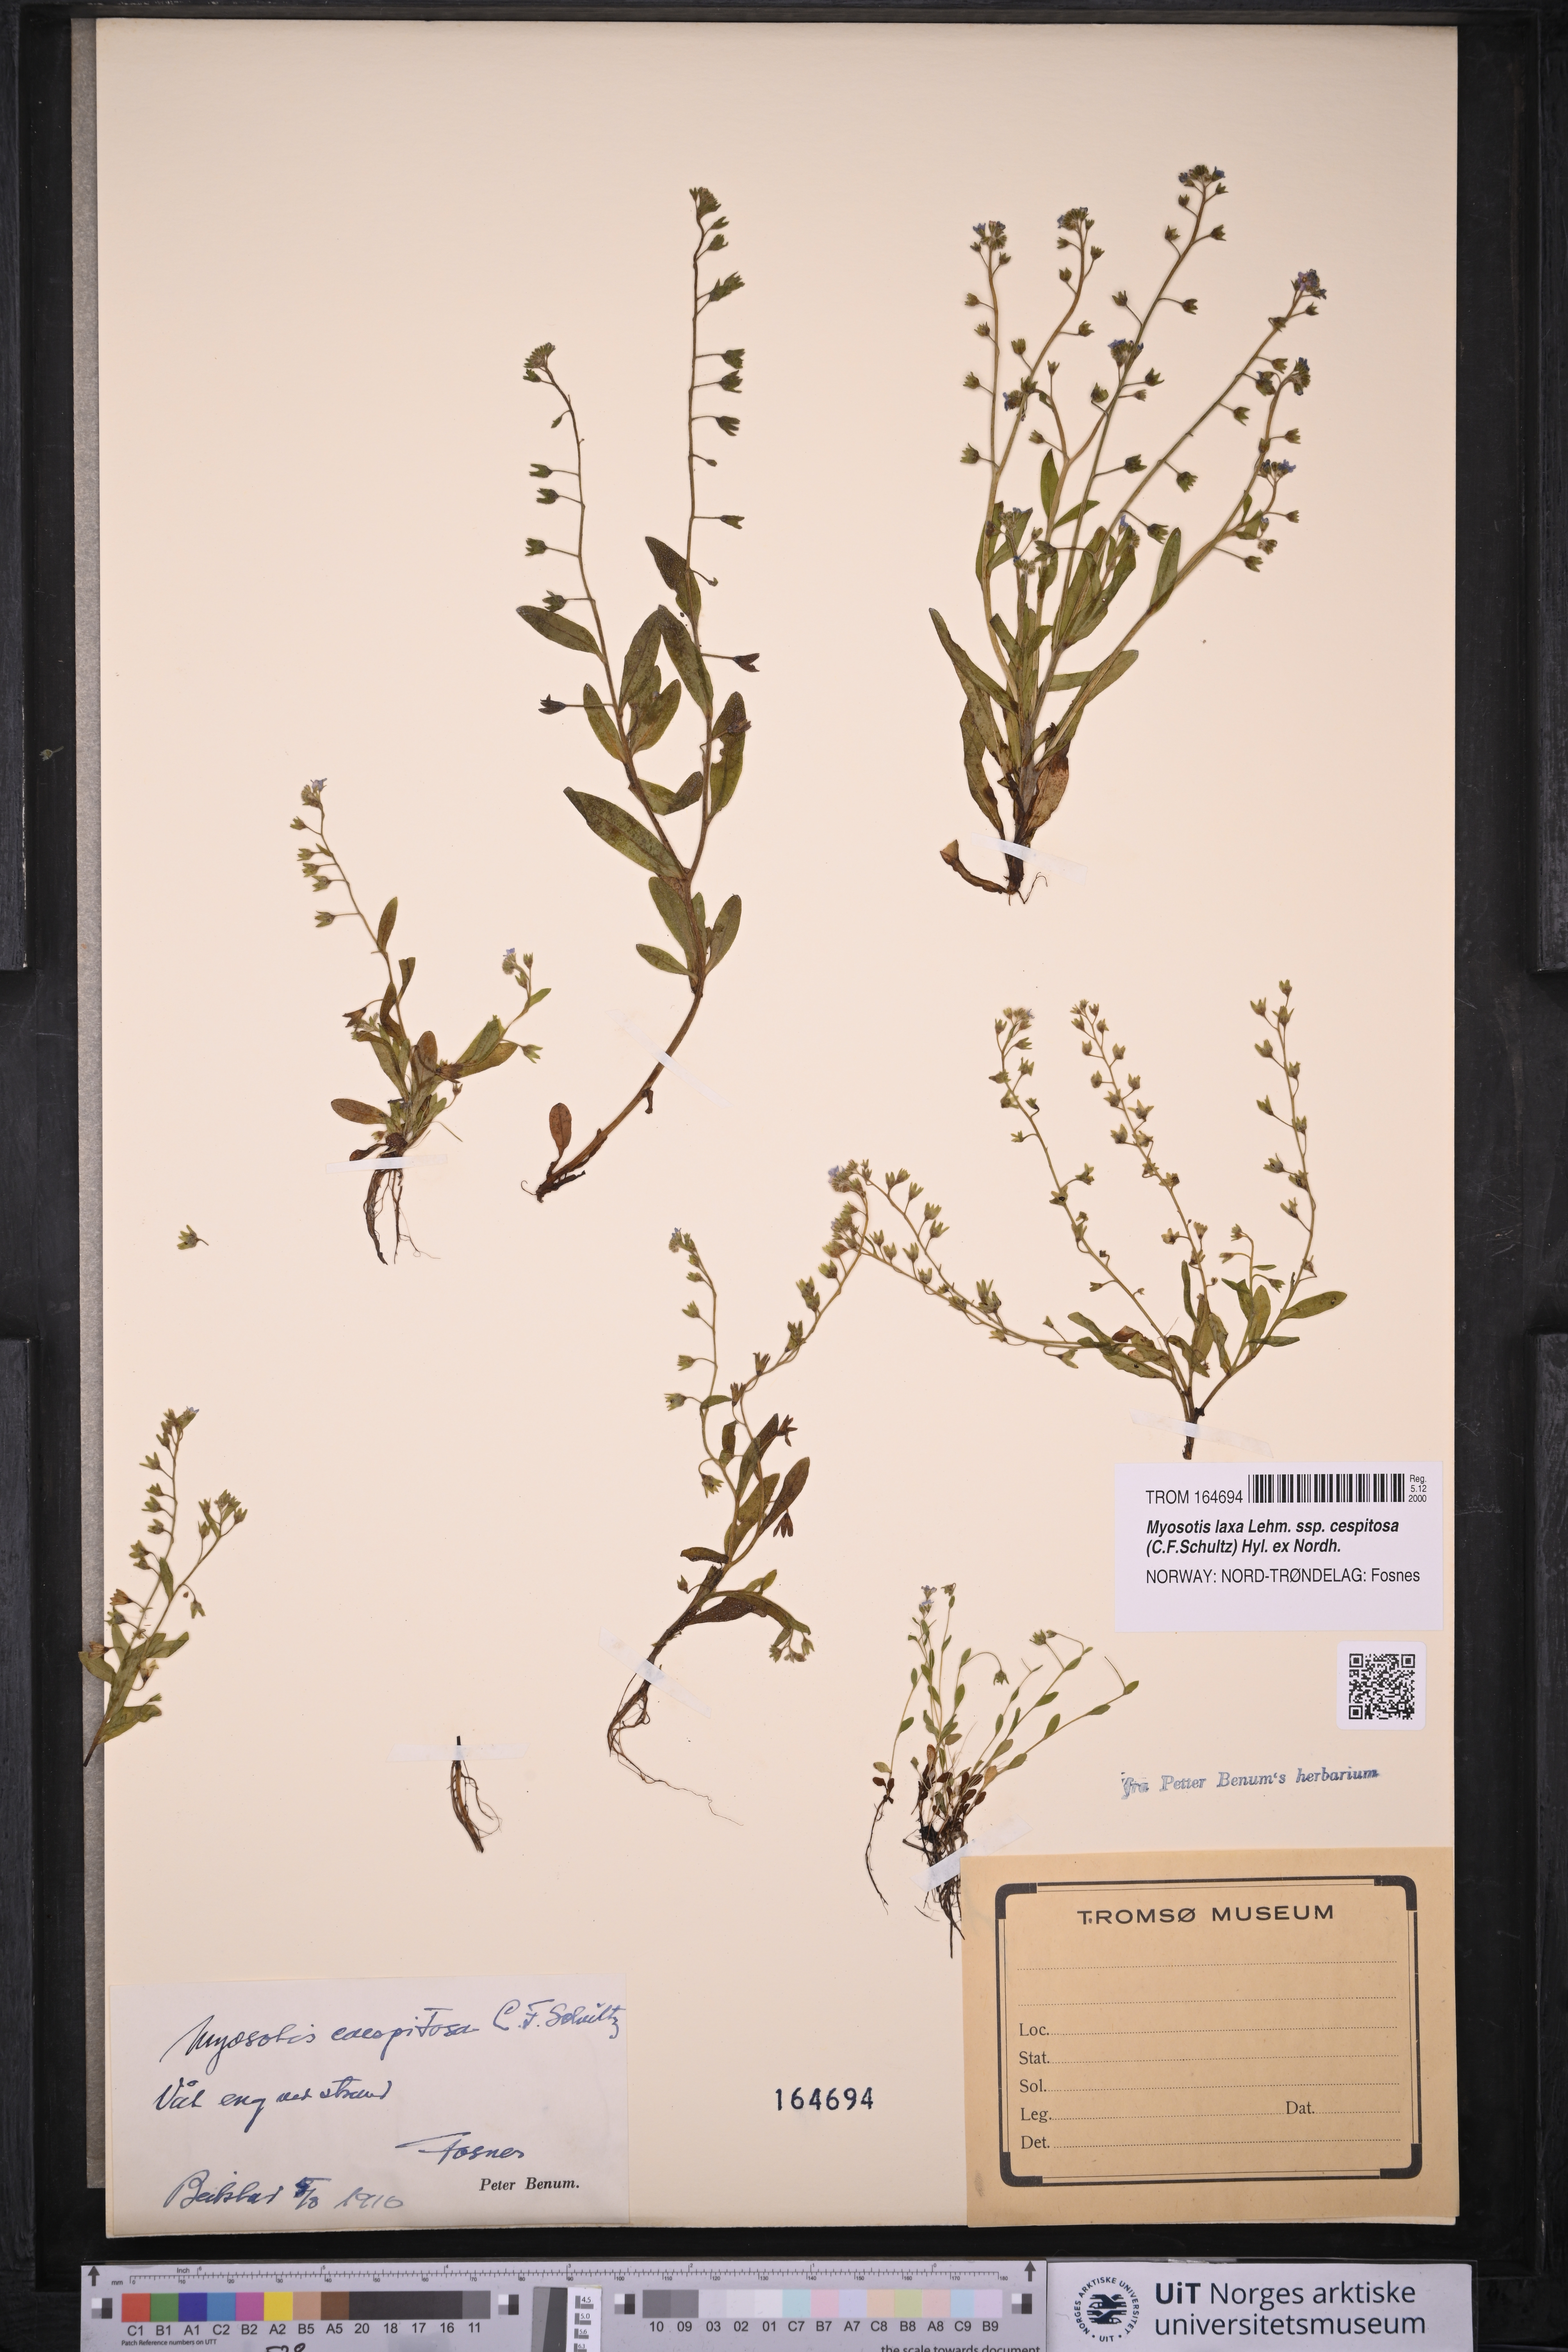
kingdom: Plantae
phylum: Tracheophyta
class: Magnoliopsida
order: Boraginales
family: Boraginaceae
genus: Myosotis
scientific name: Myosotis laxa
